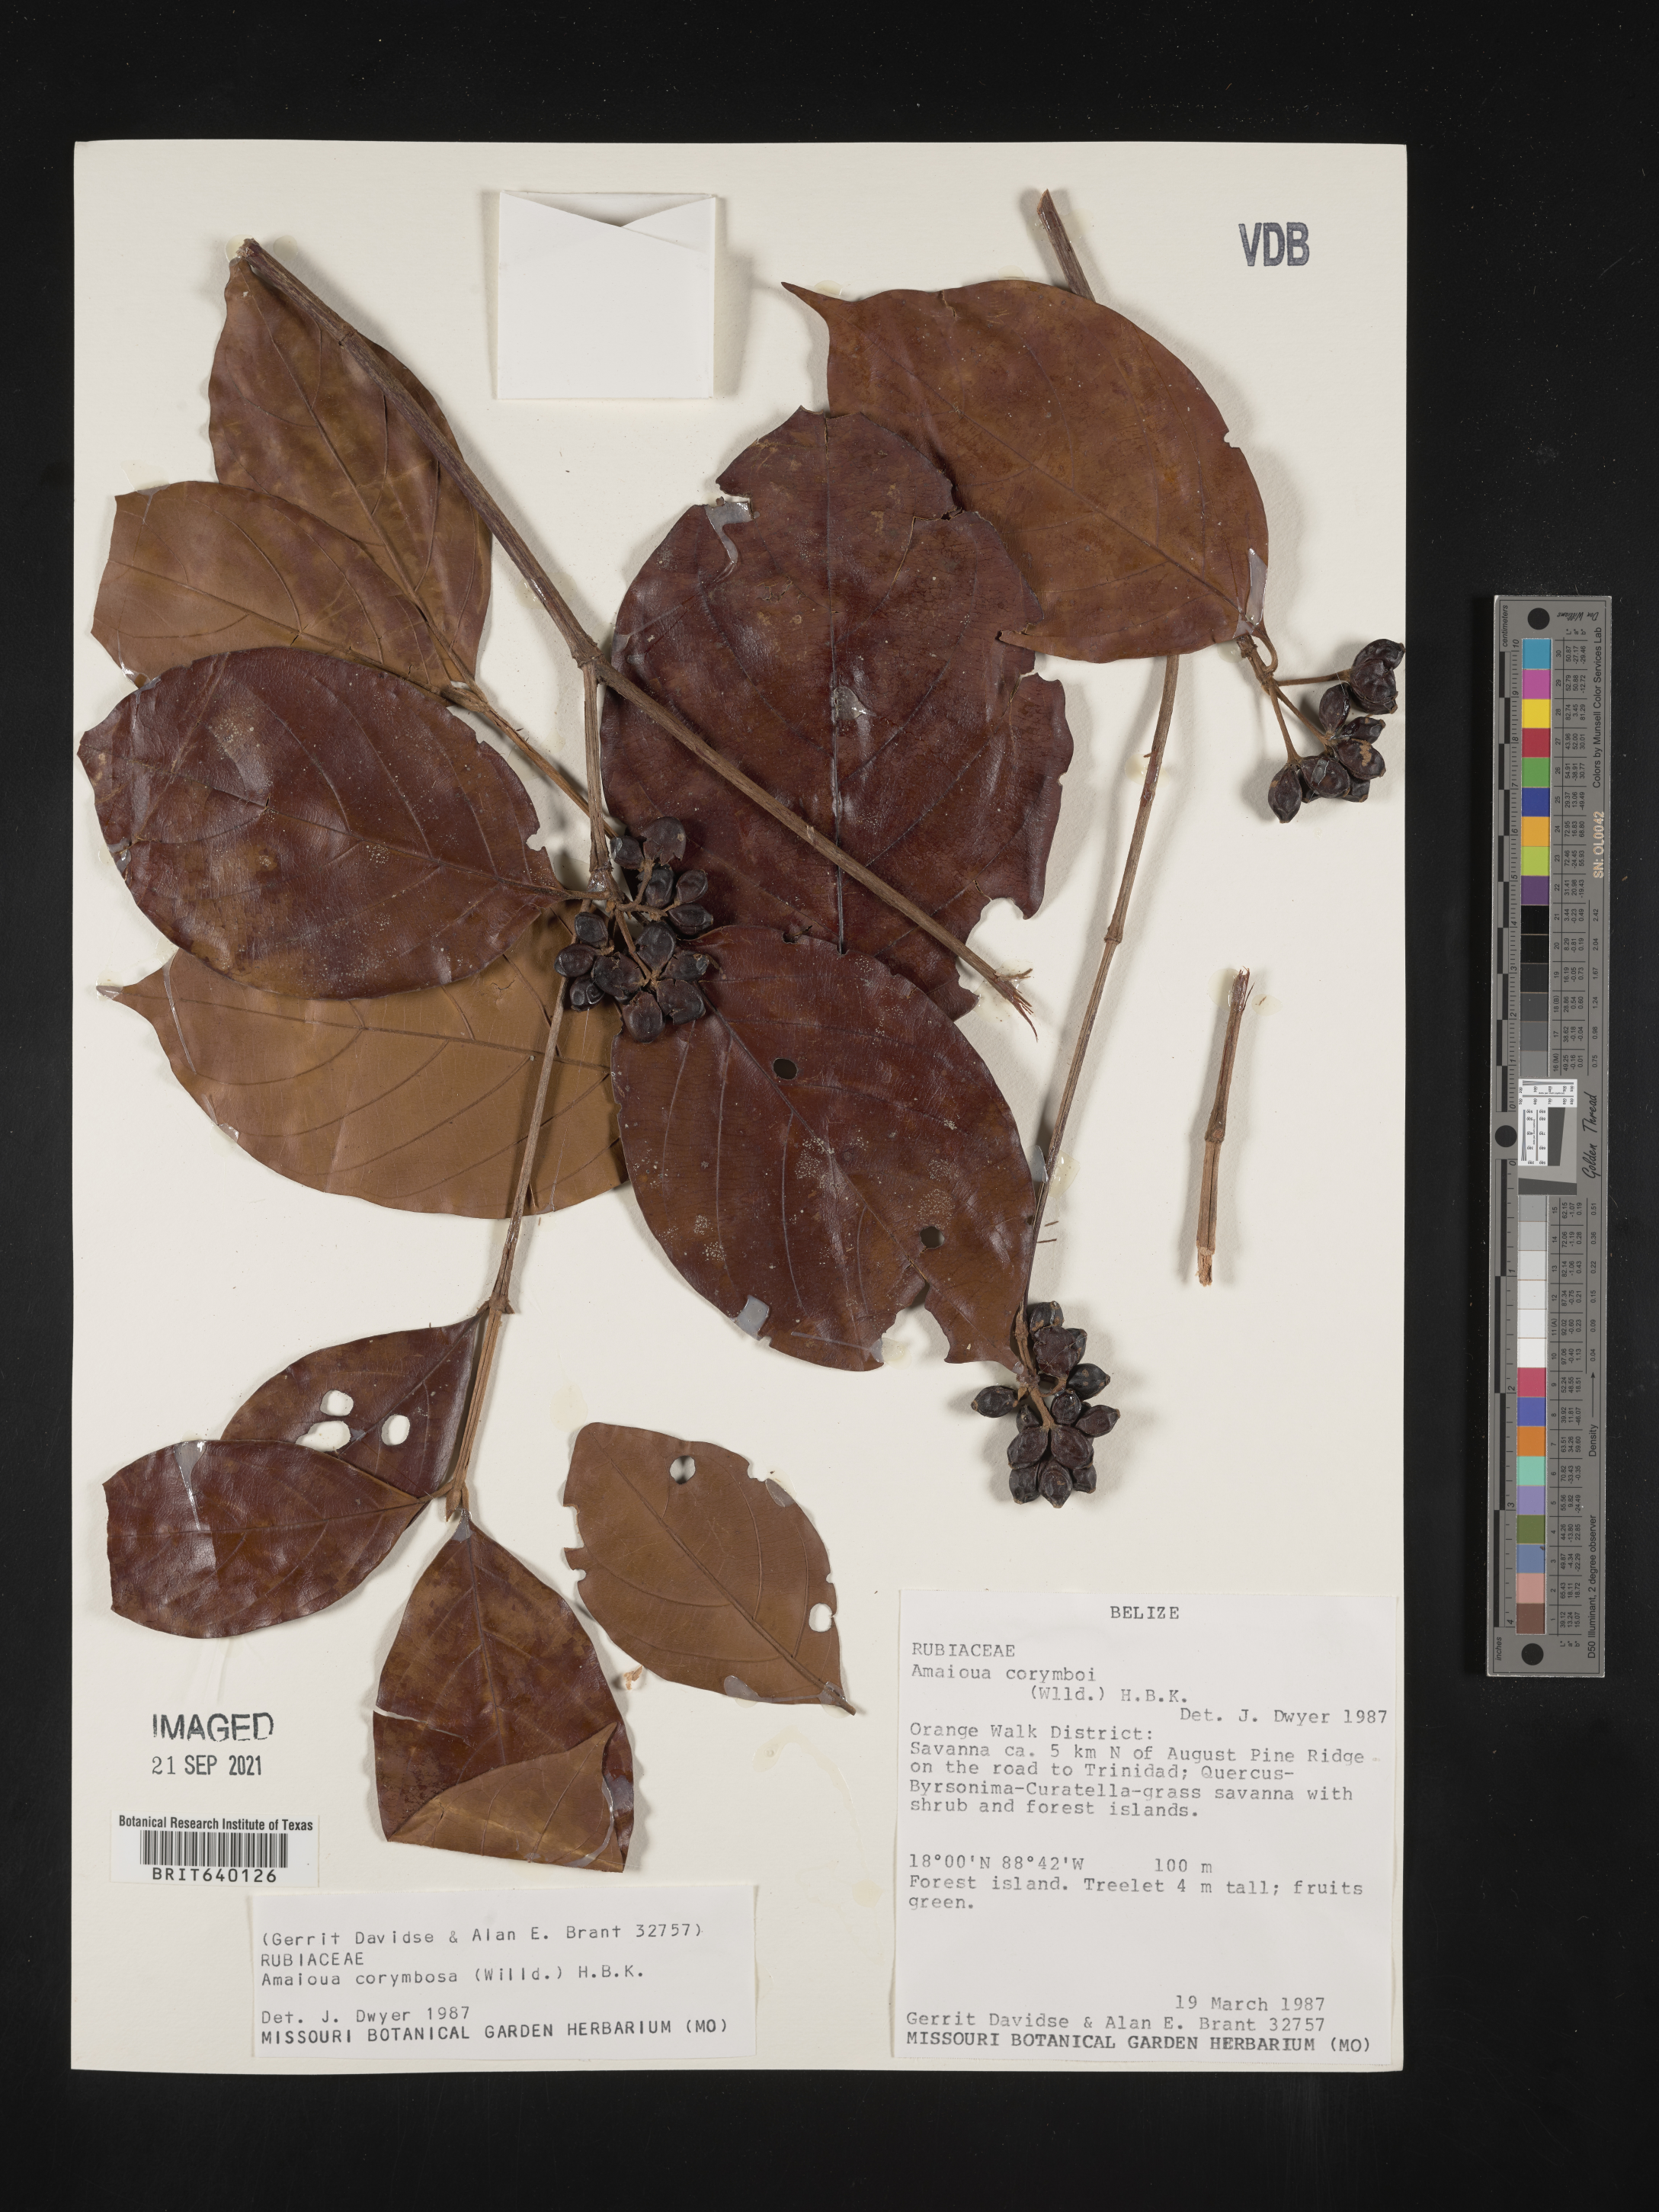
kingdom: Plantae
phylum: Tracheophyta
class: Magnoliopsida
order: Gentianales
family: Rubiaceae
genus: Amaioua
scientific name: Amaioua
